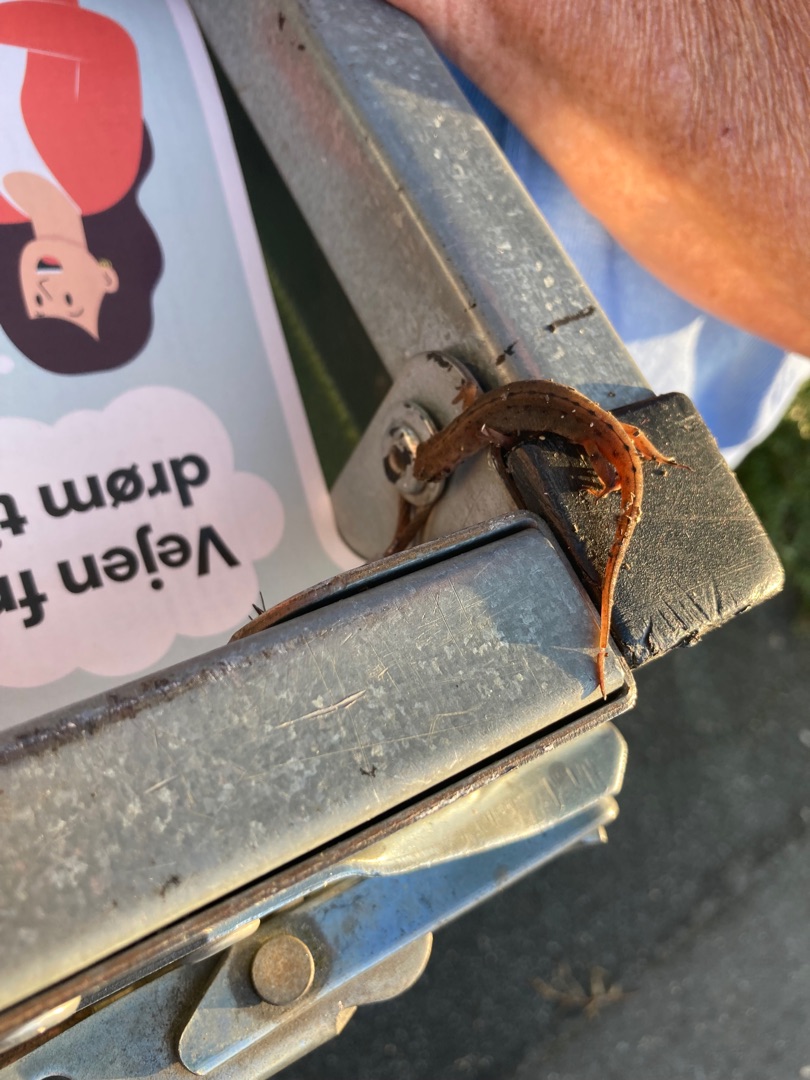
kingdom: Animalia
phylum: Chordata
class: Amphibia
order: Caudata
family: Salamandridae
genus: Lissotriton
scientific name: Lissotriton vulgaris
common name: Lille vandsalamander
